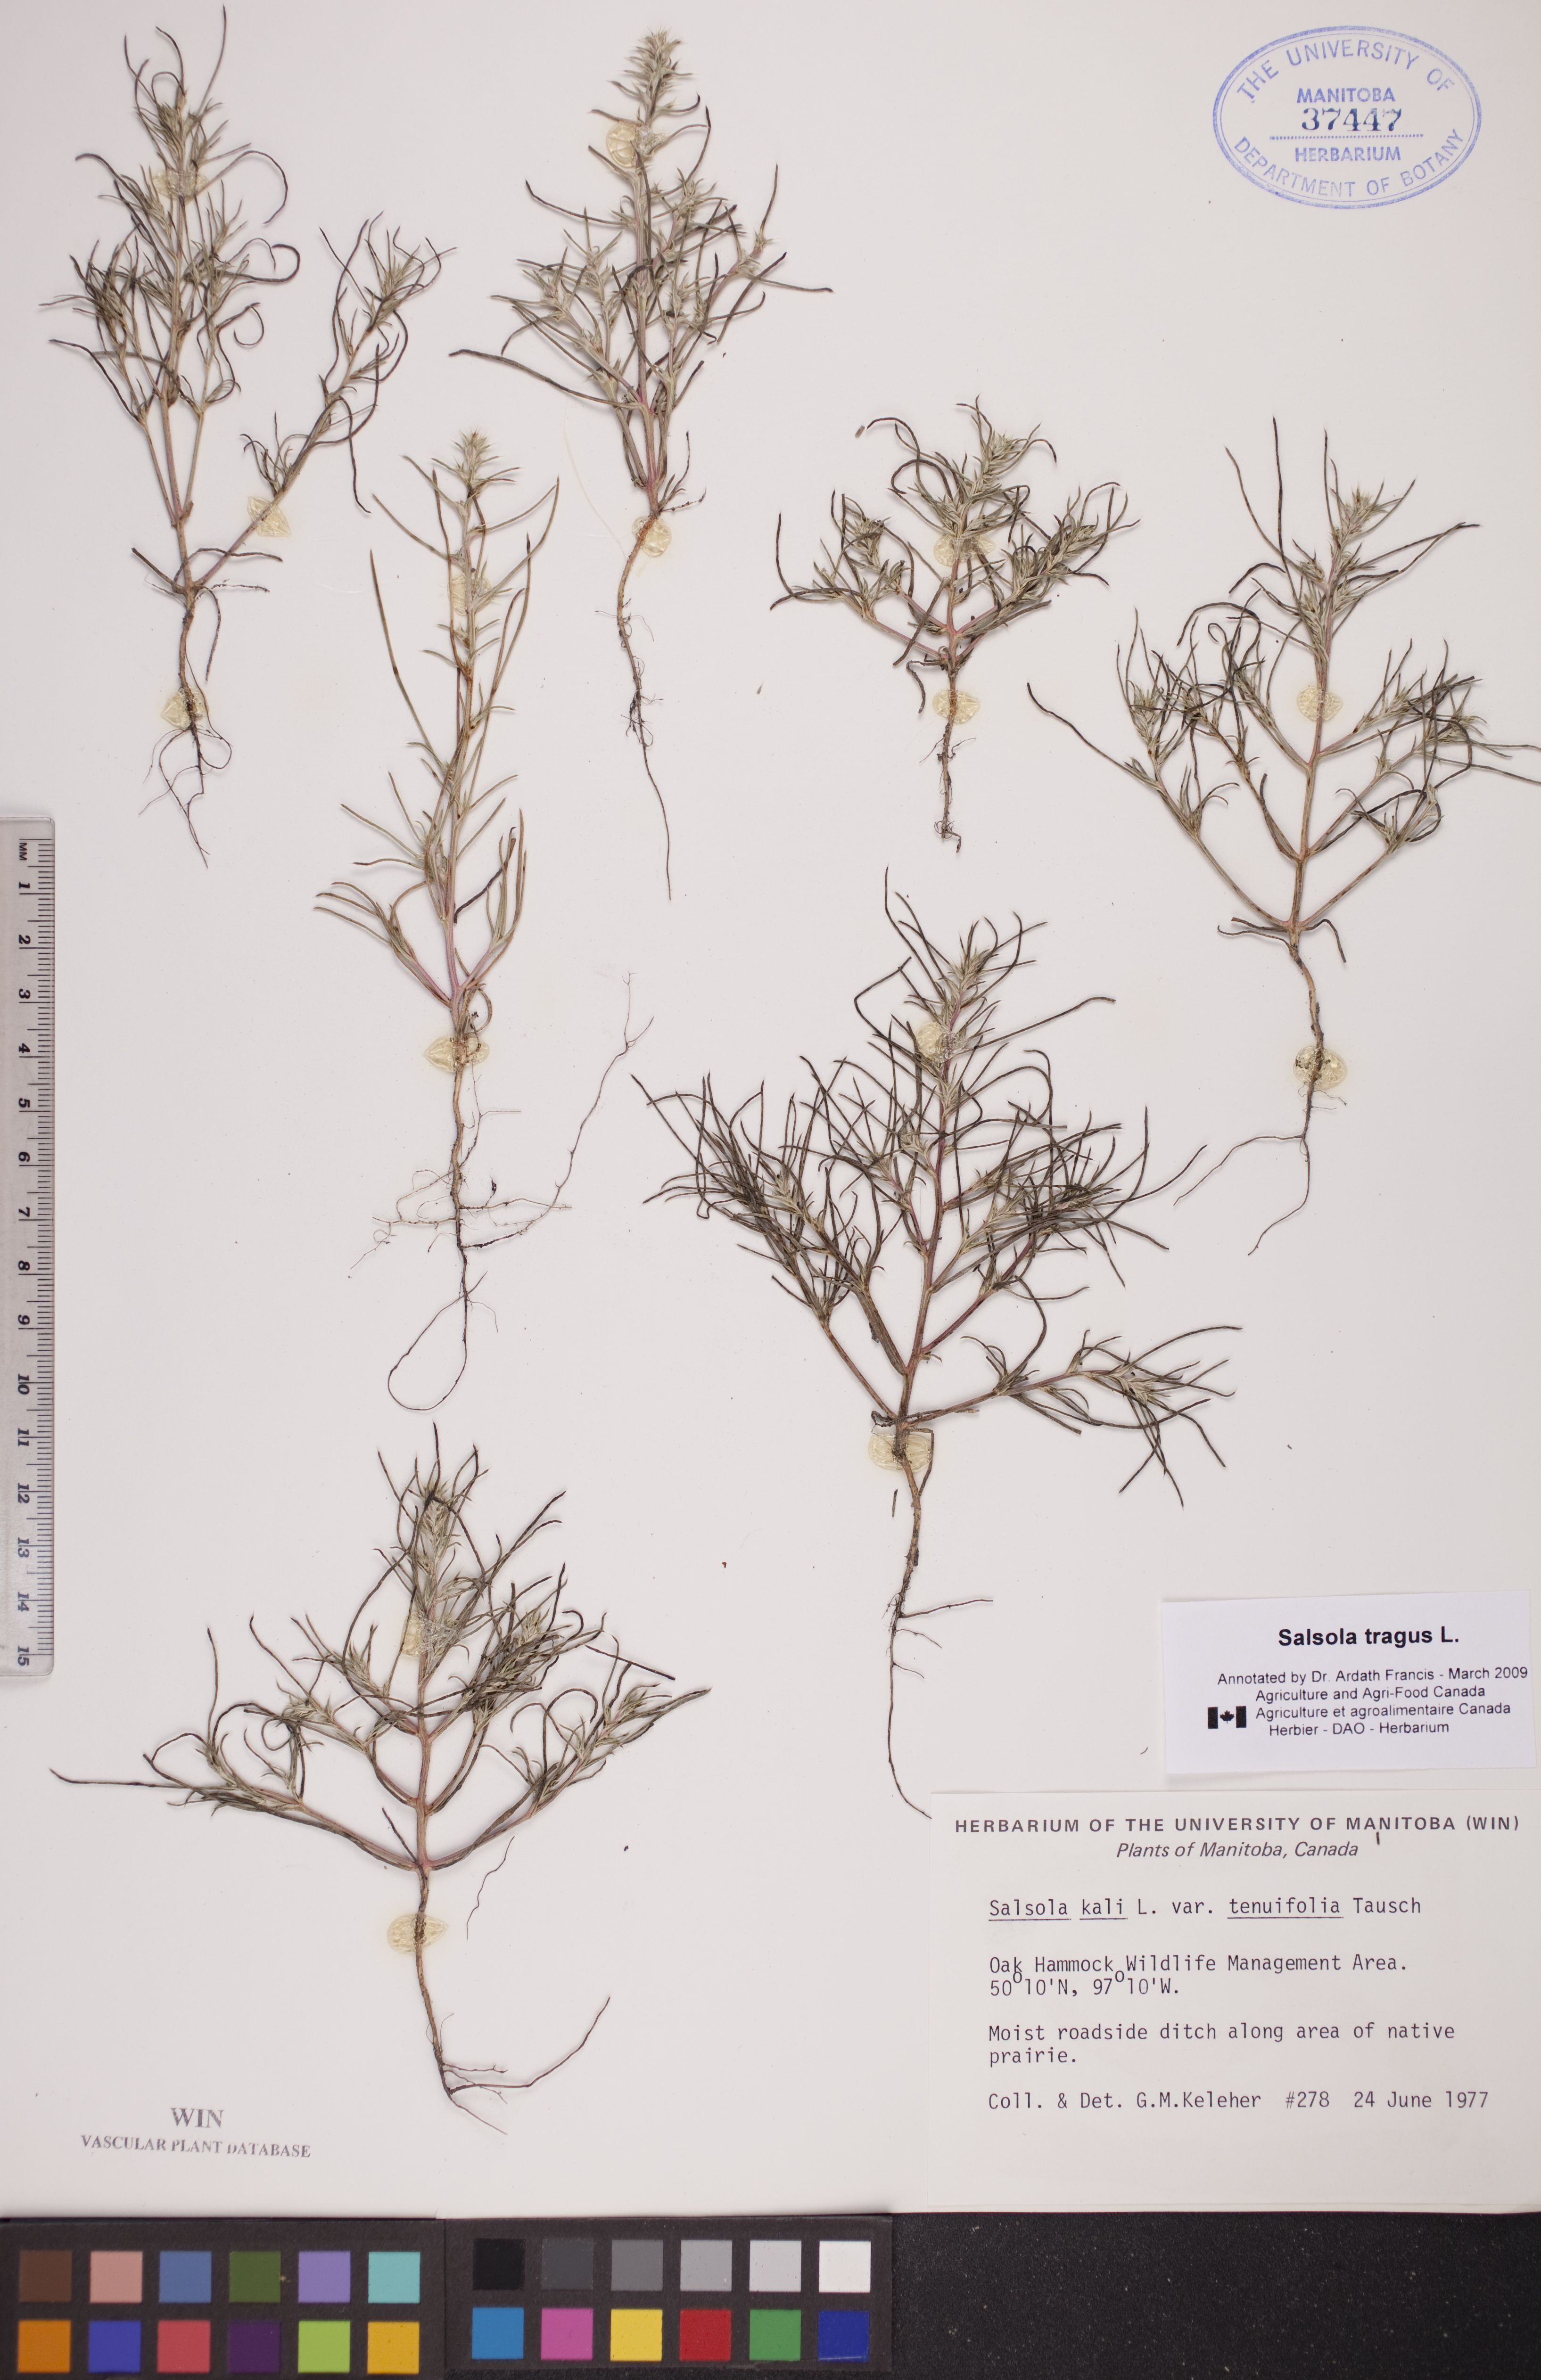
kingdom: Plantae
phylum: Tracheophyta
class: Magnoliopsida
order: Caryophyllales
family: Amaranthaceae
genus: Salsola
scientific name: Salsola tragus
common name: Prickly russian thistle
